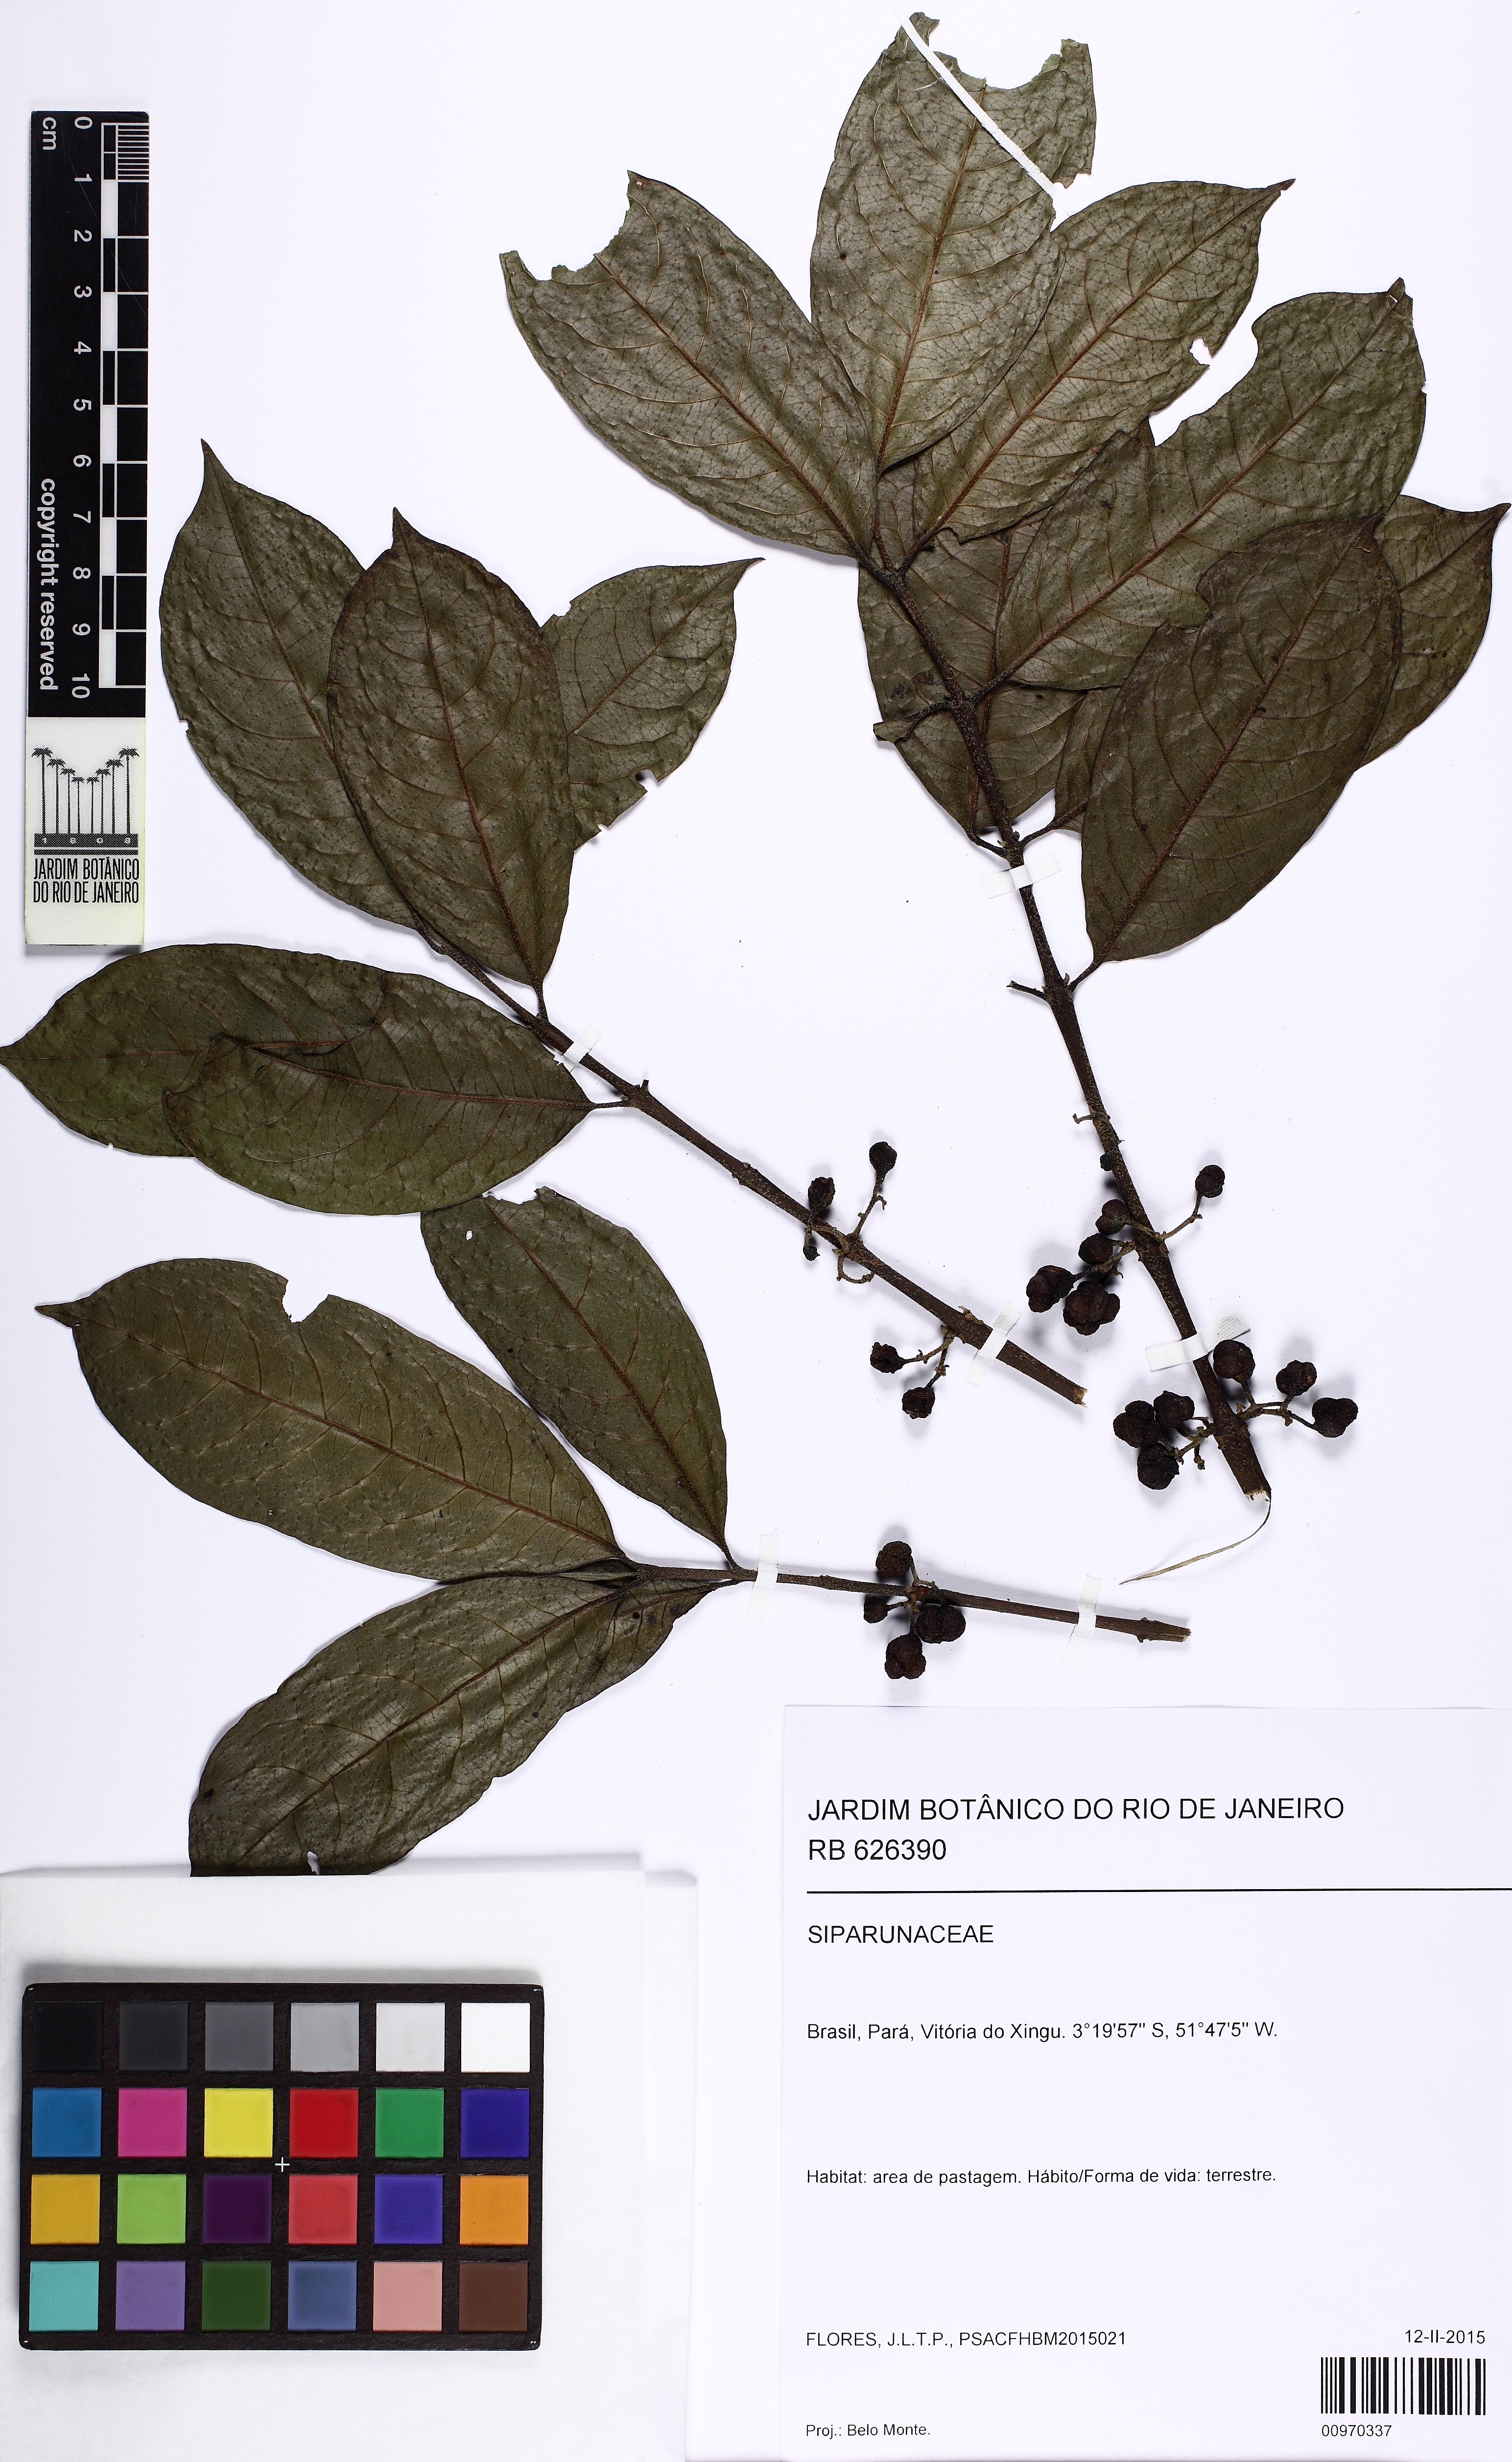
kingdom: Plantae
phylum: Tracheophyta
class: Magnoliopsida
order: Laurales
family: Siparunaceae
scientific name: Siparunaceae
